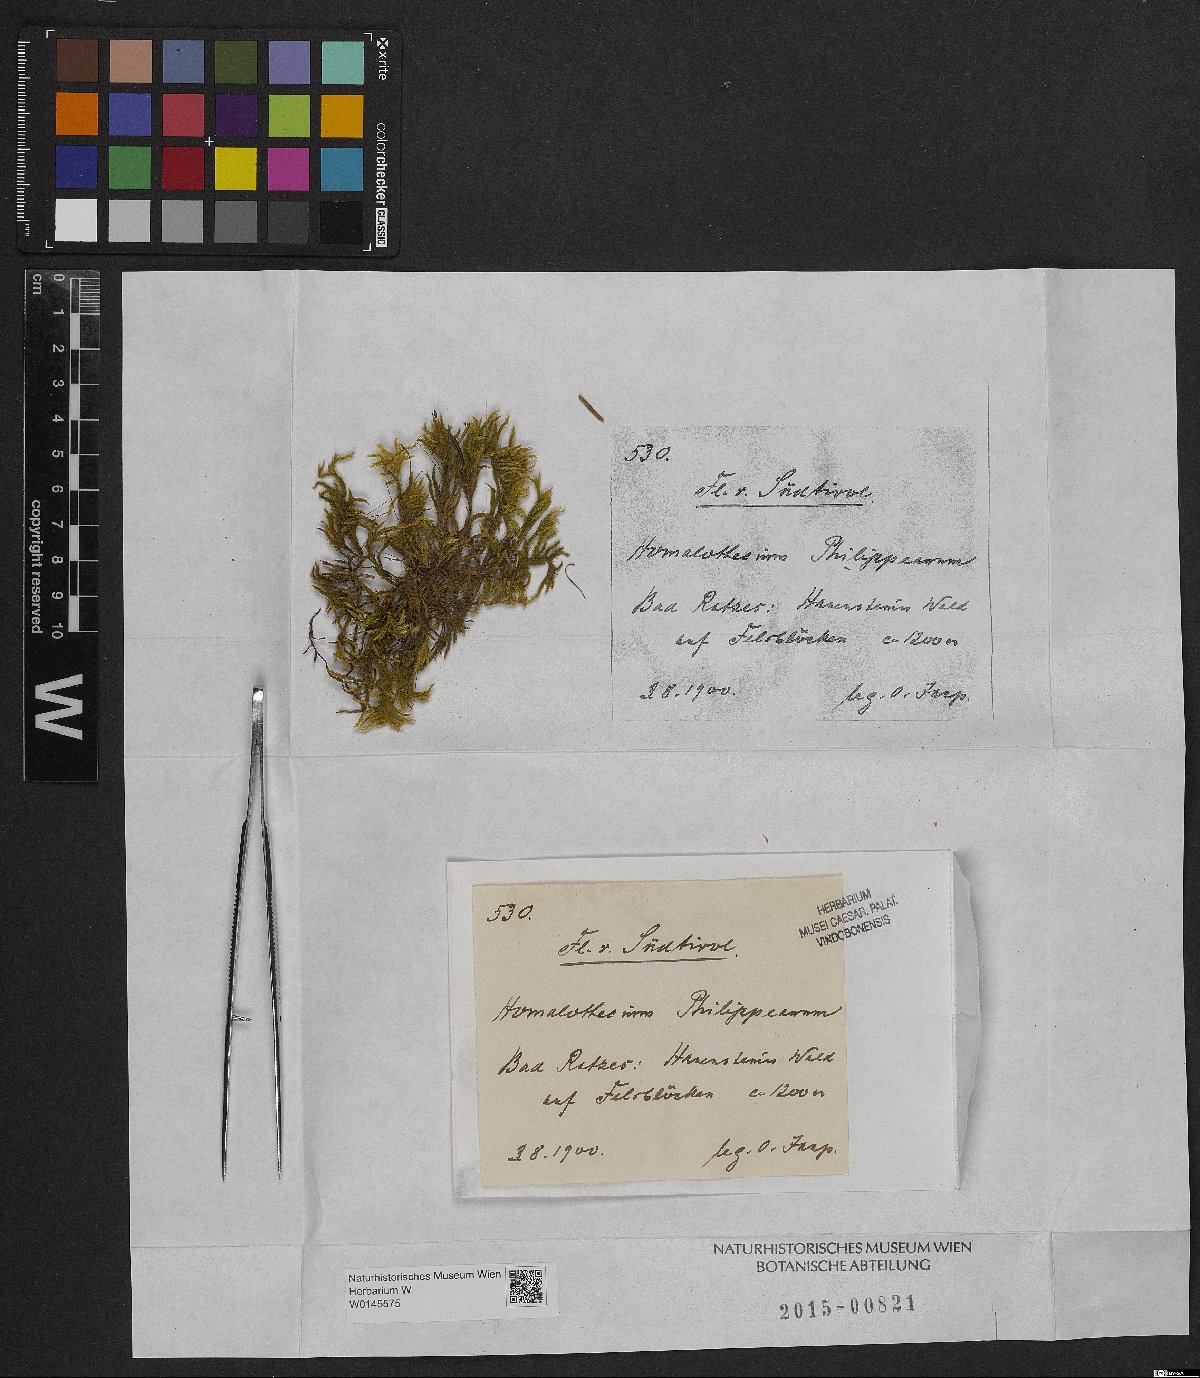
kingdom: Plantae
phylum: Bryophyta
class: Bryopsida
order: Hypnales
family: Brachytheciaceae
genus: Homalothecium
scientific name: Homalothecium philippeanum
